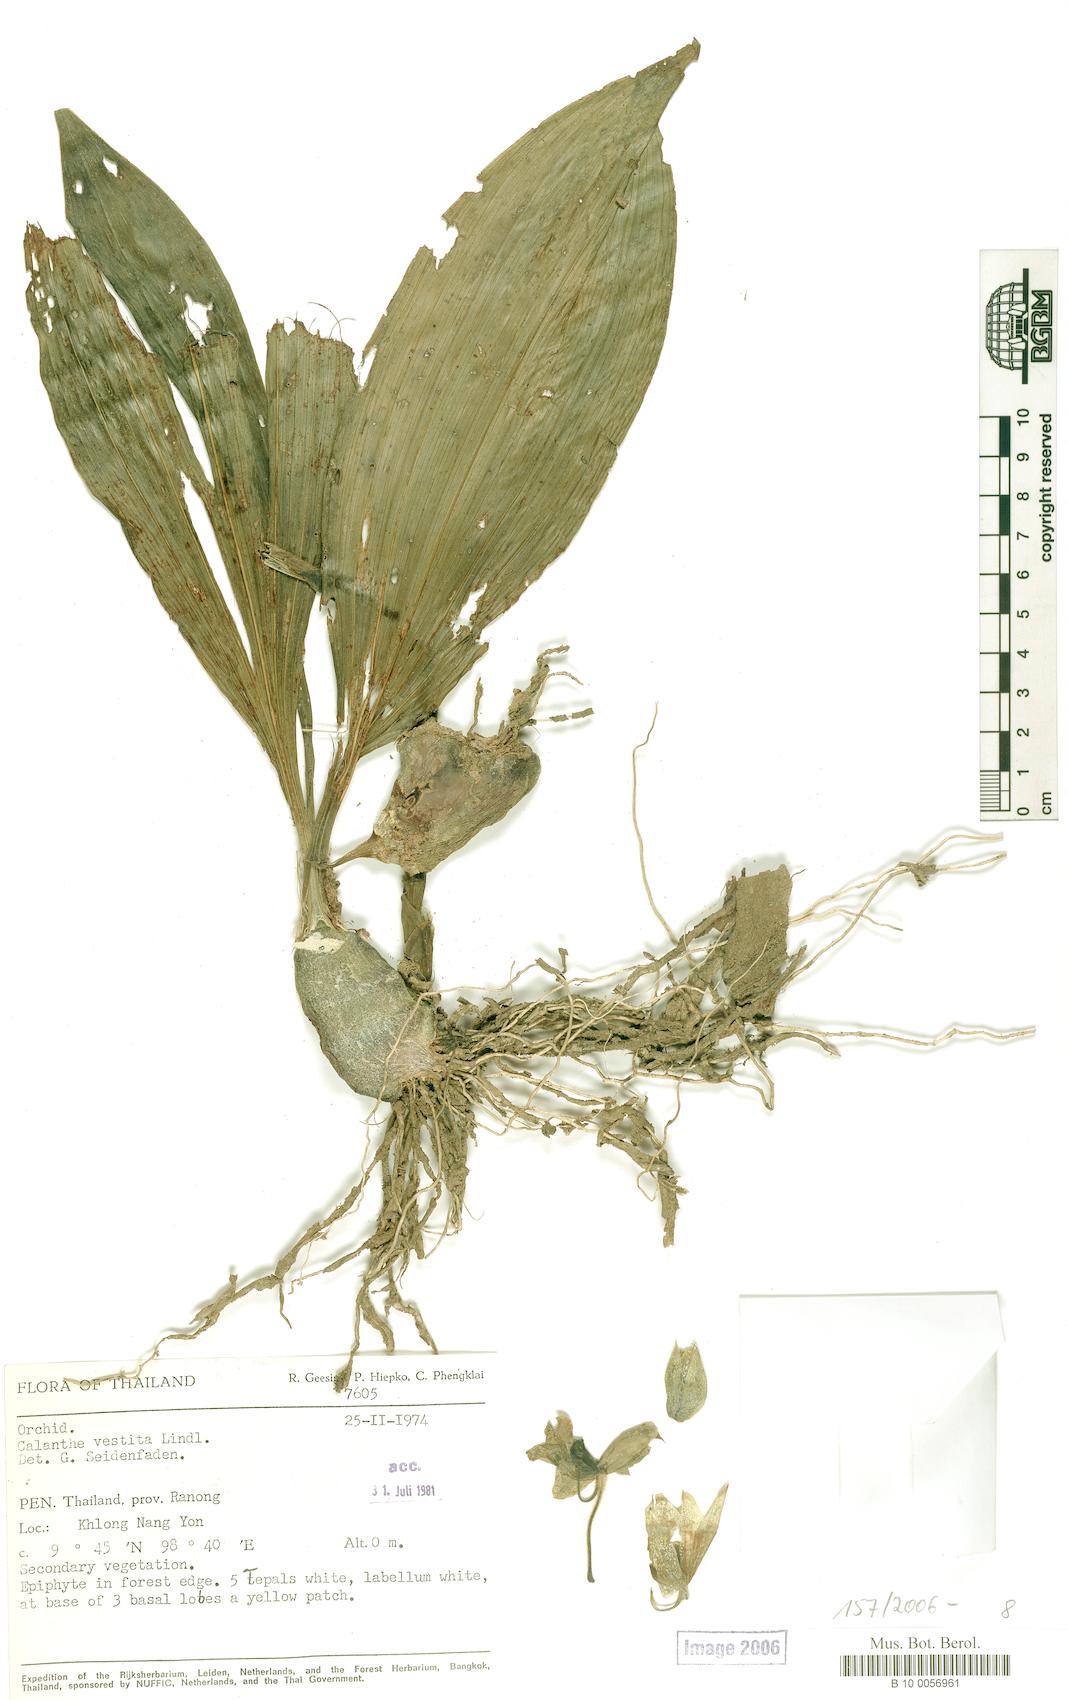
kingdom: Plantae
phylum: Tracheophyta
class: Liliopsida
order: Asparagales
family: Orchidaceae
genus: Calanthe
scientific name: Calanthe vestita
